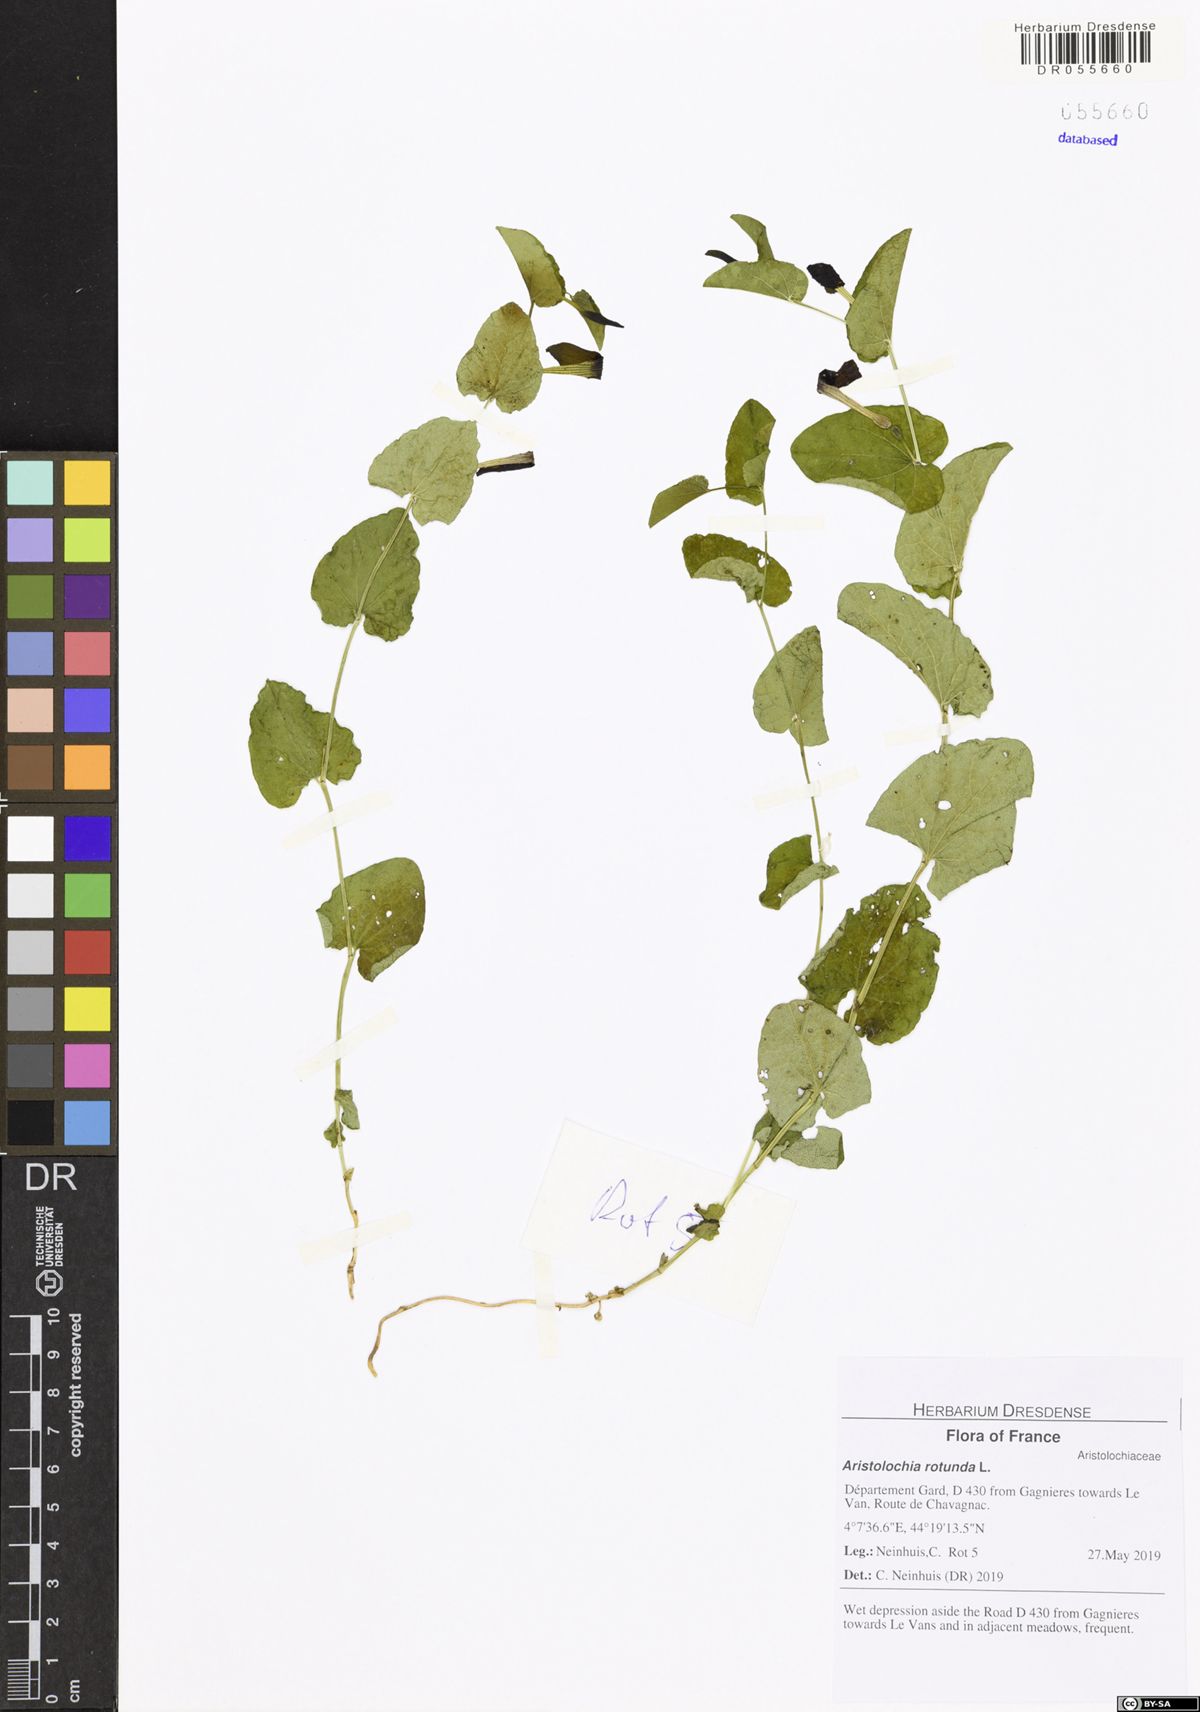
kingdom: Plantae
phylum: Tracheophyta
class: Magnoliopsida
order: Piperales
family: Aristolochiaceae
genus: Aristolochia
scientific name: Aristolochia rotunda
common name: Smearwort
